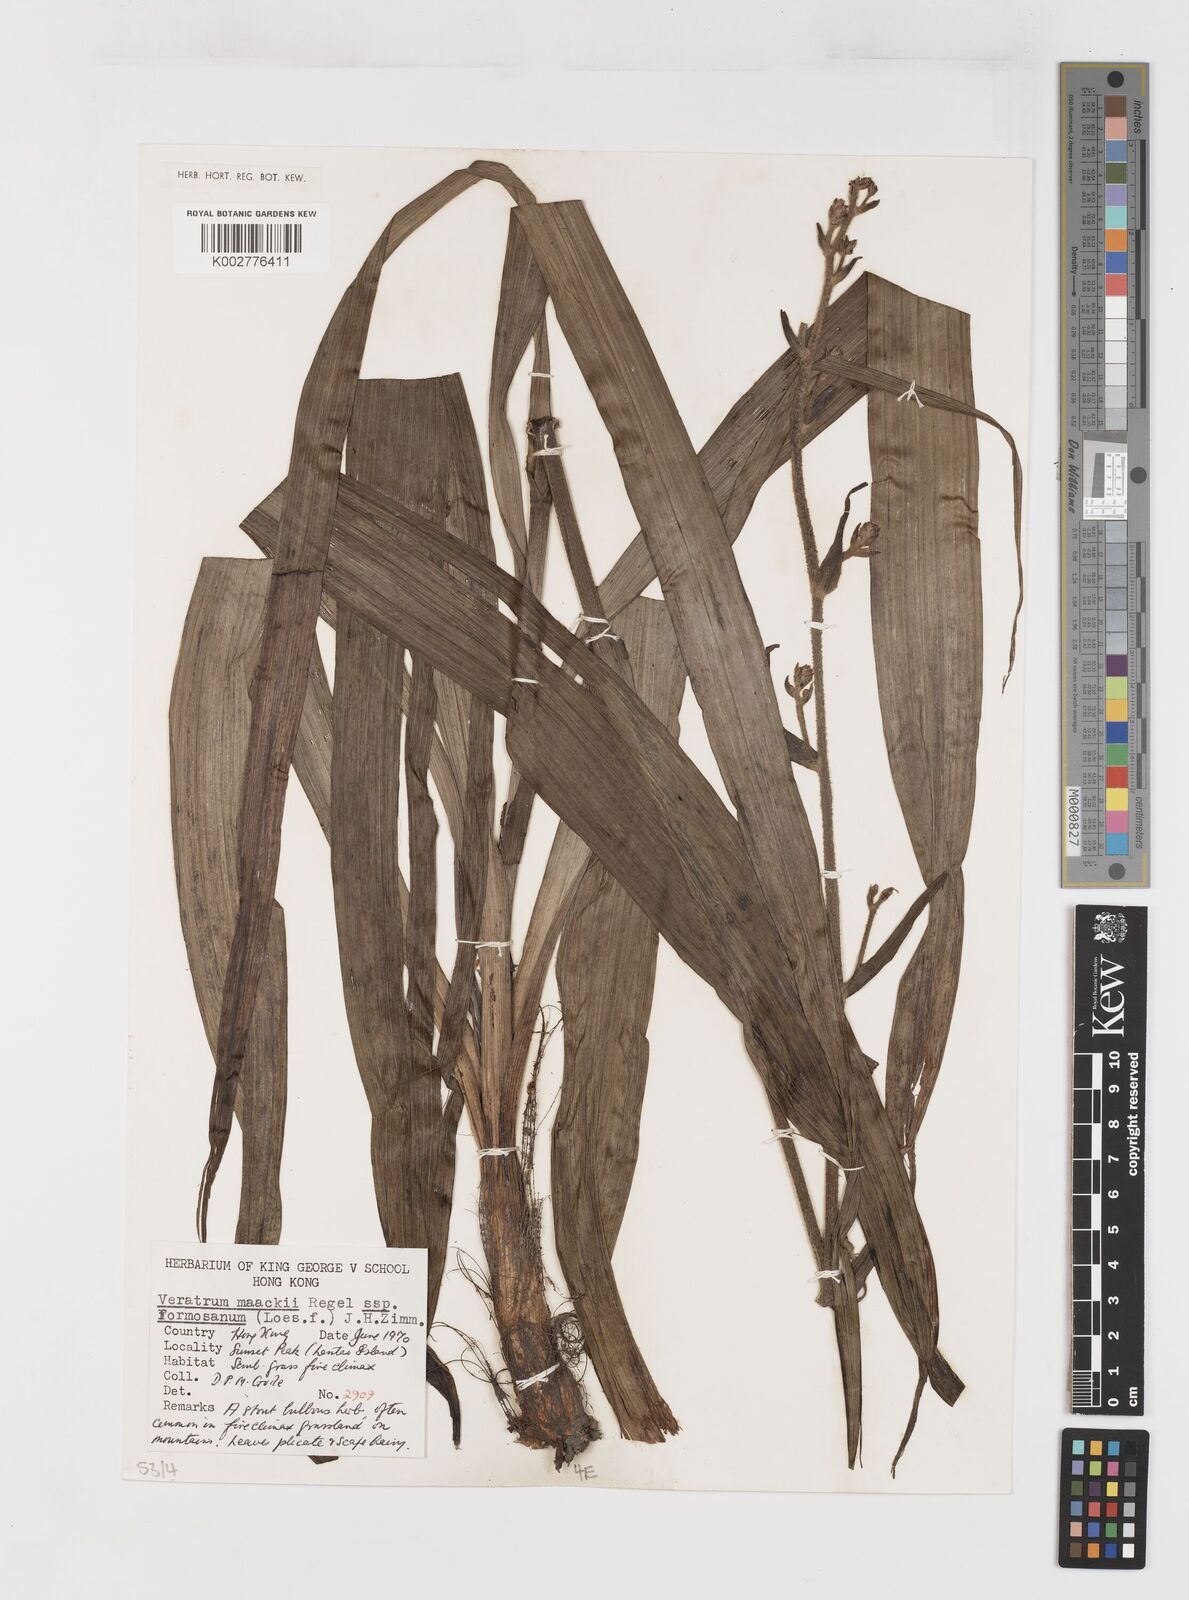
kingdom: Plantae
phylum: Tracheophyta
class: Liliopsida
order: Liliales
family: Melanthiaceae
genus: Veratrum
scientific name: Veratrum maackii
